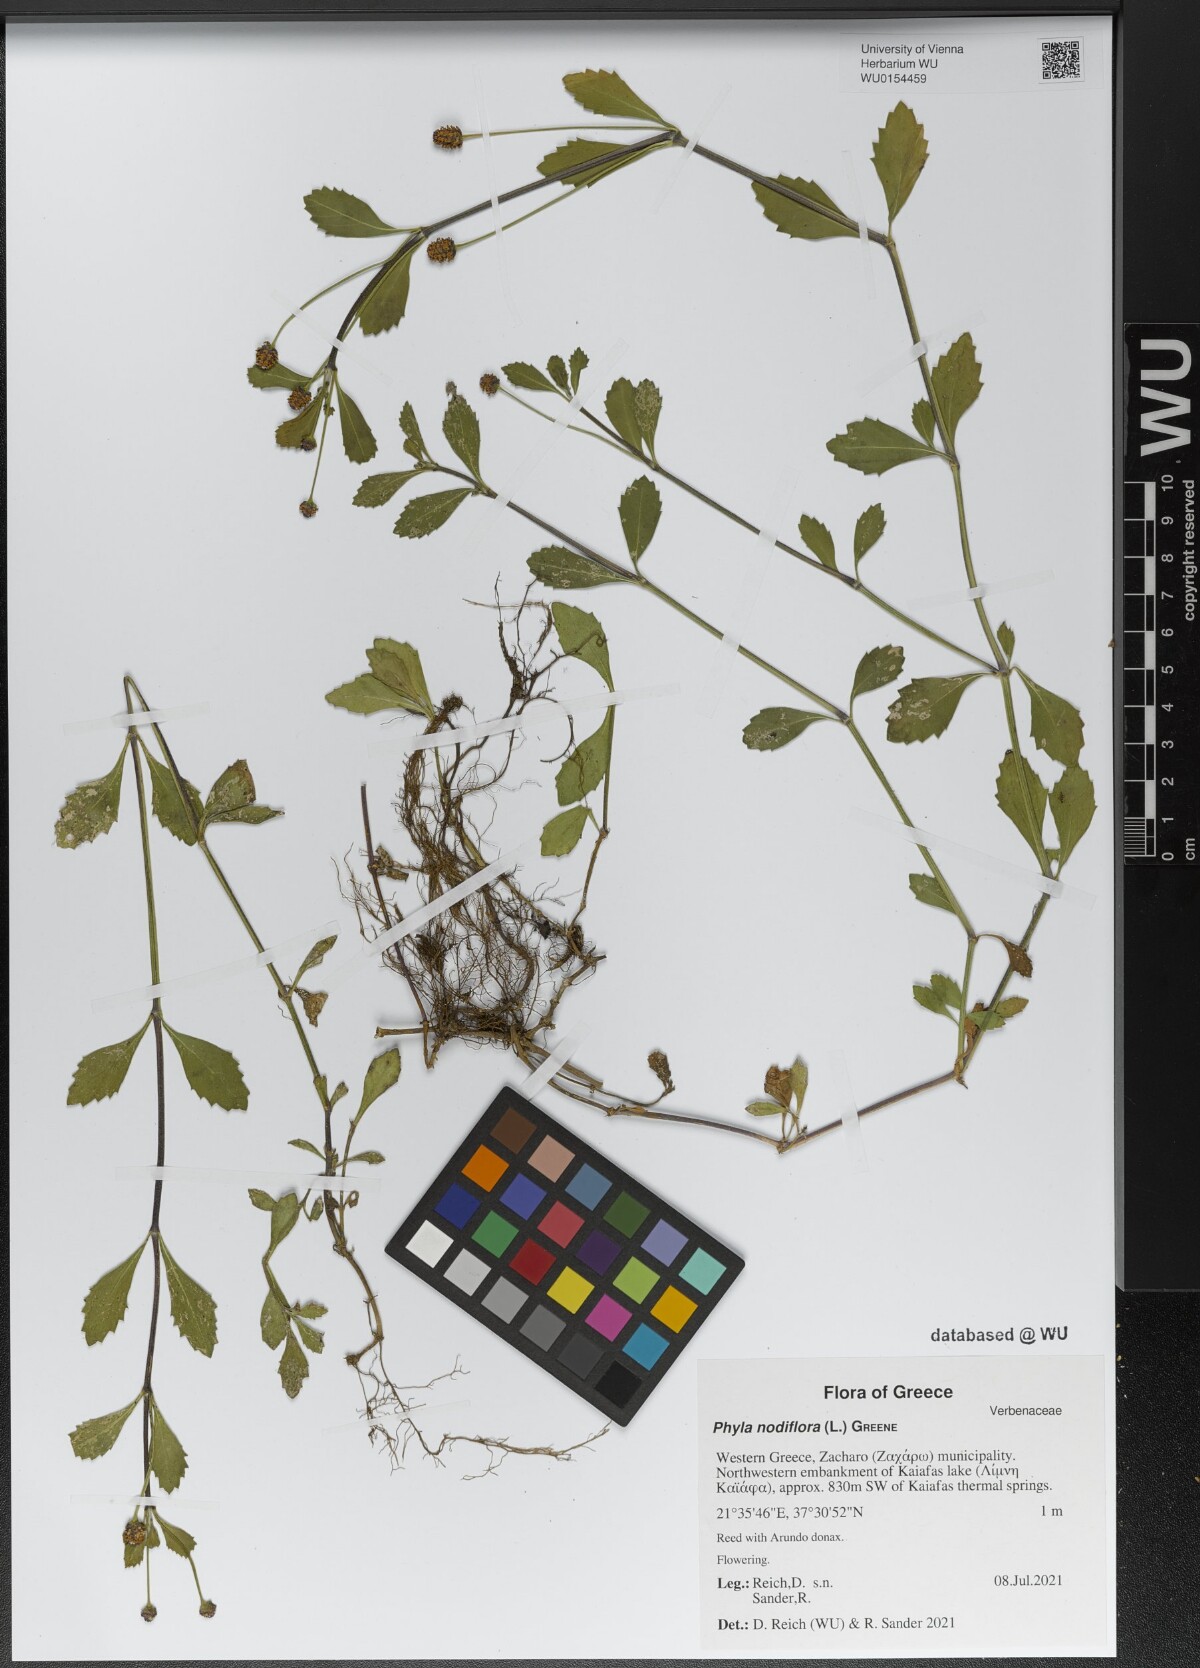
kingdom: Plantae
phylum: Tracheophyta
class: Magnoliopsida
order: Lamiales
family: Verbenaceae
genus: Phyla
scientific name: Phyla nodiflora
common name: Frogfruit
